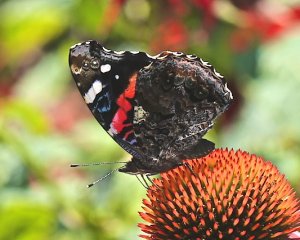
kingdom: Animalia
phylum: Arthropoda
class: Insecta
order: Lepidoptera
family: Nymphalidae
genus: Vanessa
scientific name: Vanessa atalanta
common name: Red Admiral
